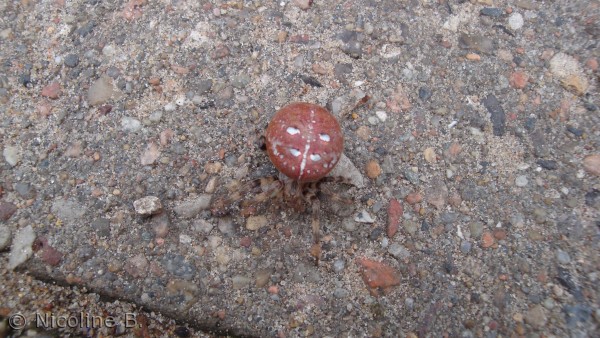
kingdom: Animalia
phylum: Arthropoda
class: Arachnida
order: Araneae
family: Araneidae
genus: Araneus
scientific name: Araneus quadratus
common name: Kvadratedderkop
